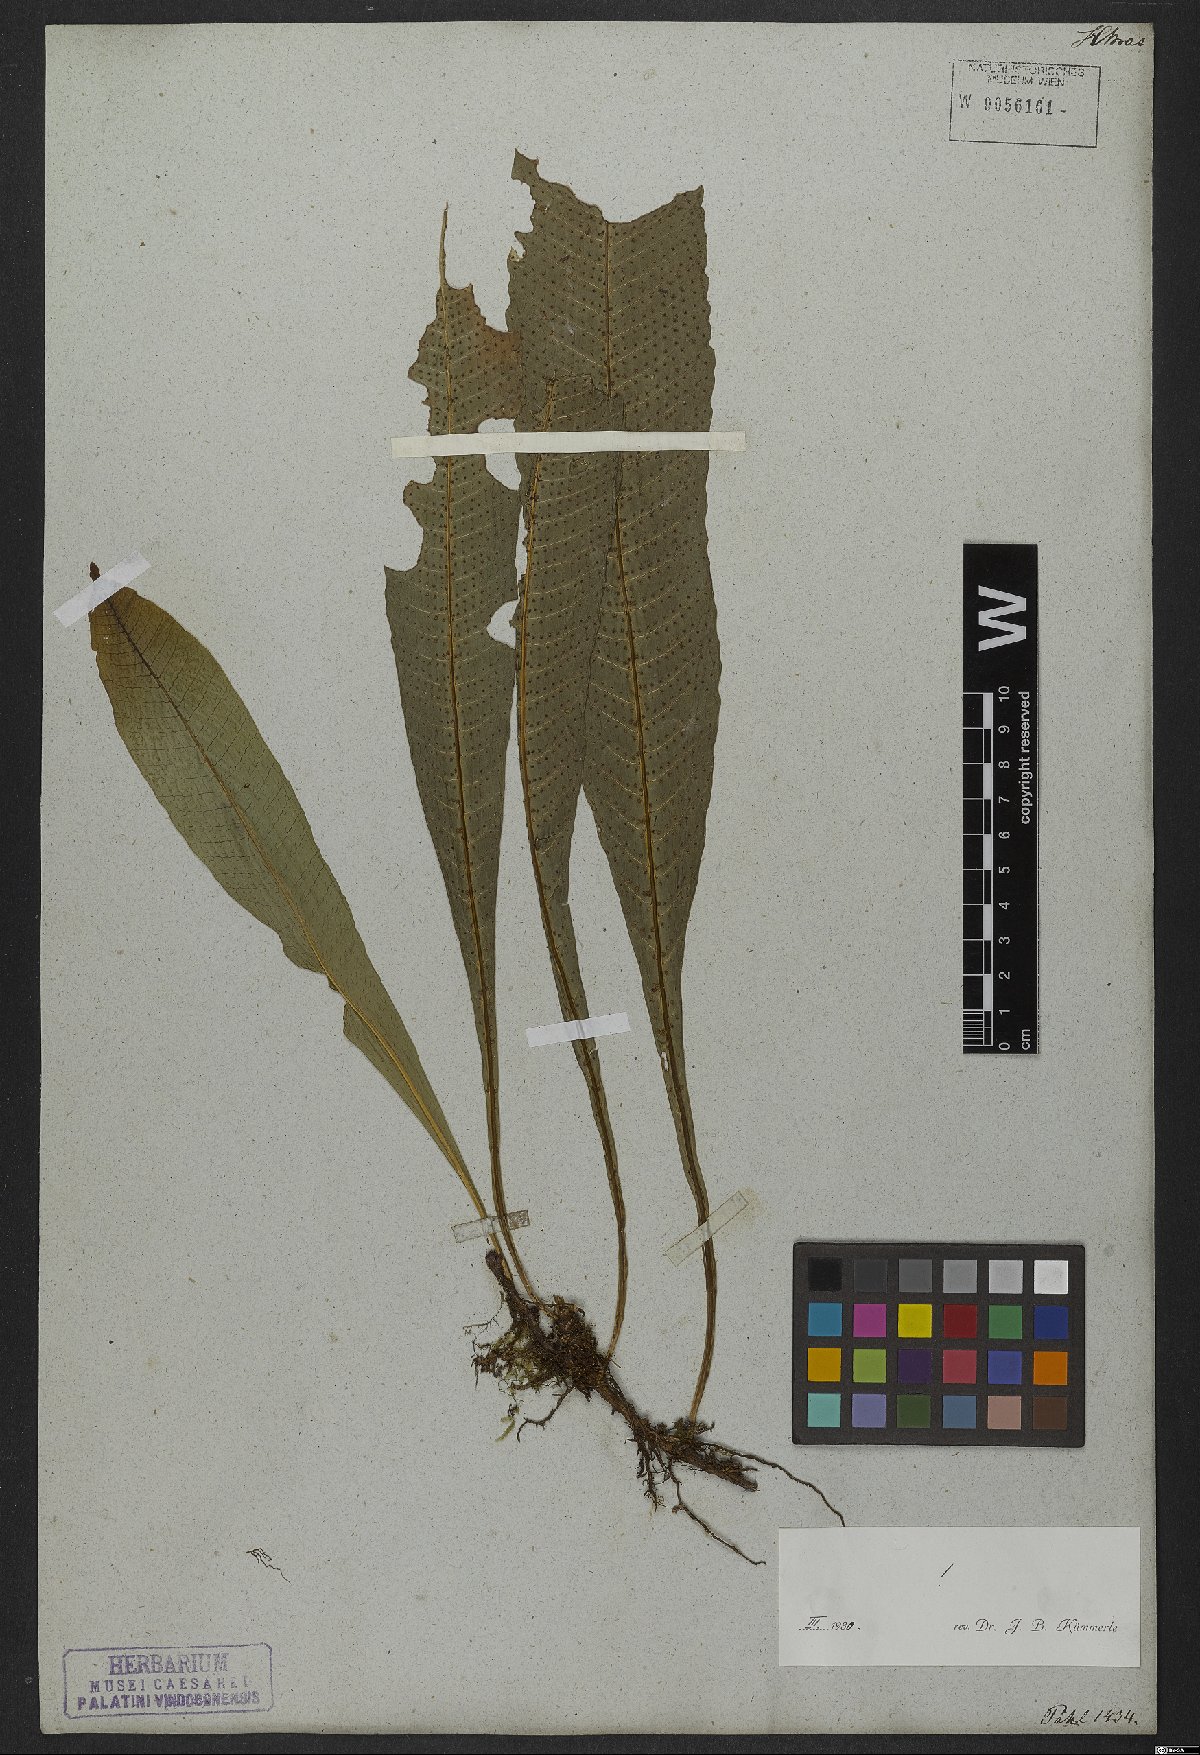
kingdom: Plantae
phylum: Tracheophyta
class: Polypodiopsida
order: Polypodiales
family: Polypodiaceae
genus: Campyloneurum
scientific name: Campyloneurum nitidum
